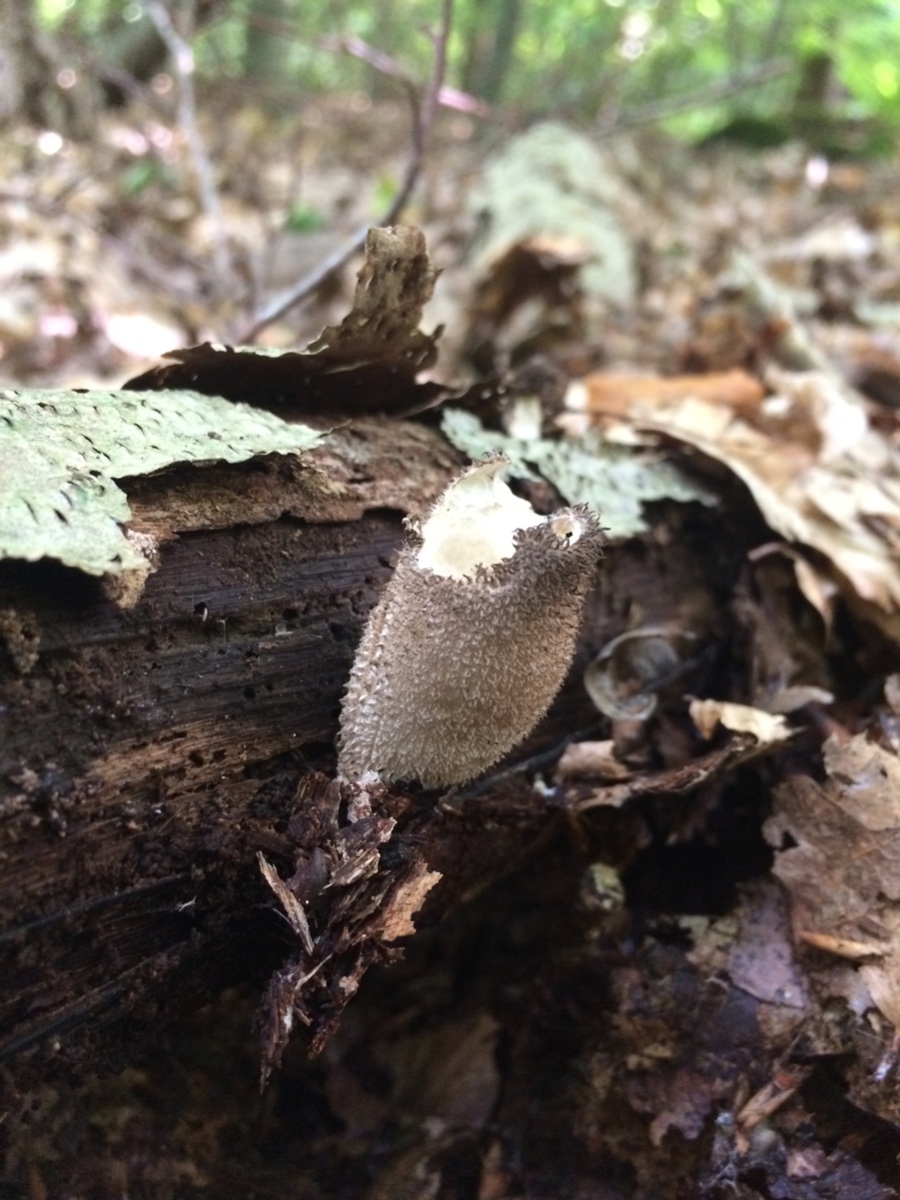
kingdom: Fungi
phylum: Basidiomycota
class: Agaricomycetes
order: Agaricales
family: Lycoperdaceae
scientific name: Lycoperdaceae
